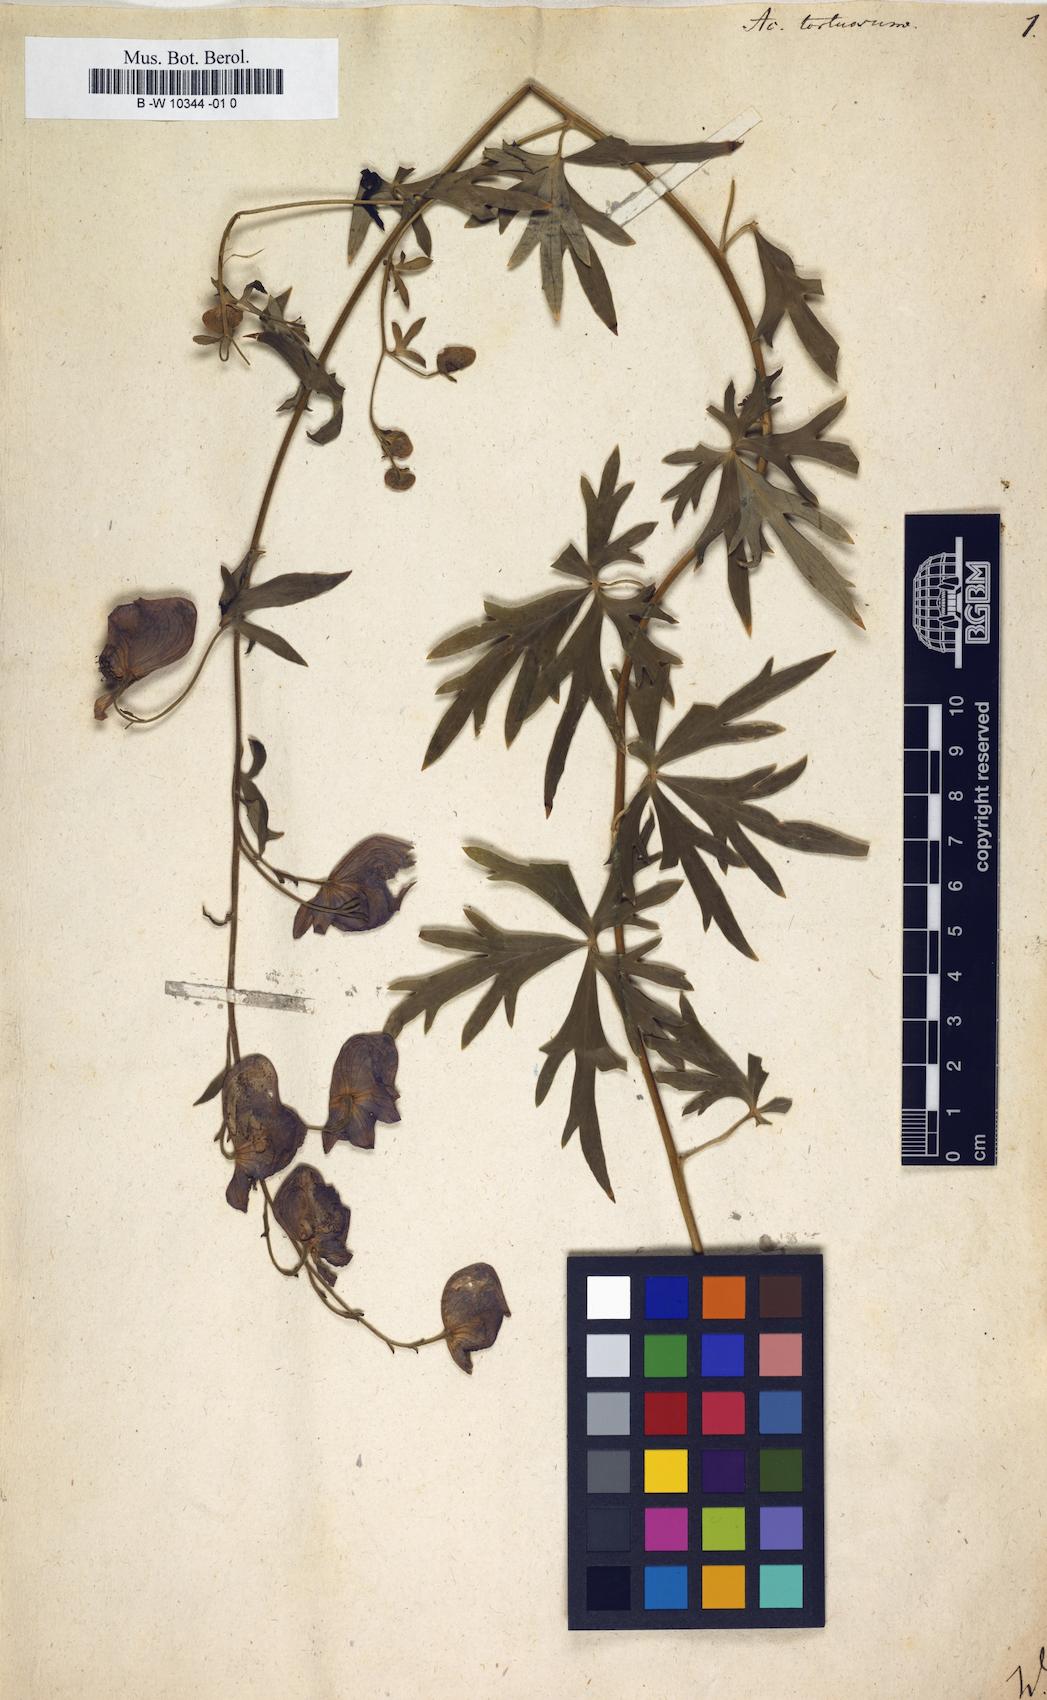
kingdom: Plantae
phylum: Tracheophyta
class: Magnoliopsida
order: Ranunculales
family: Ranunculaceae
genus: Aconitum
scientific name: Aconitum volubile
